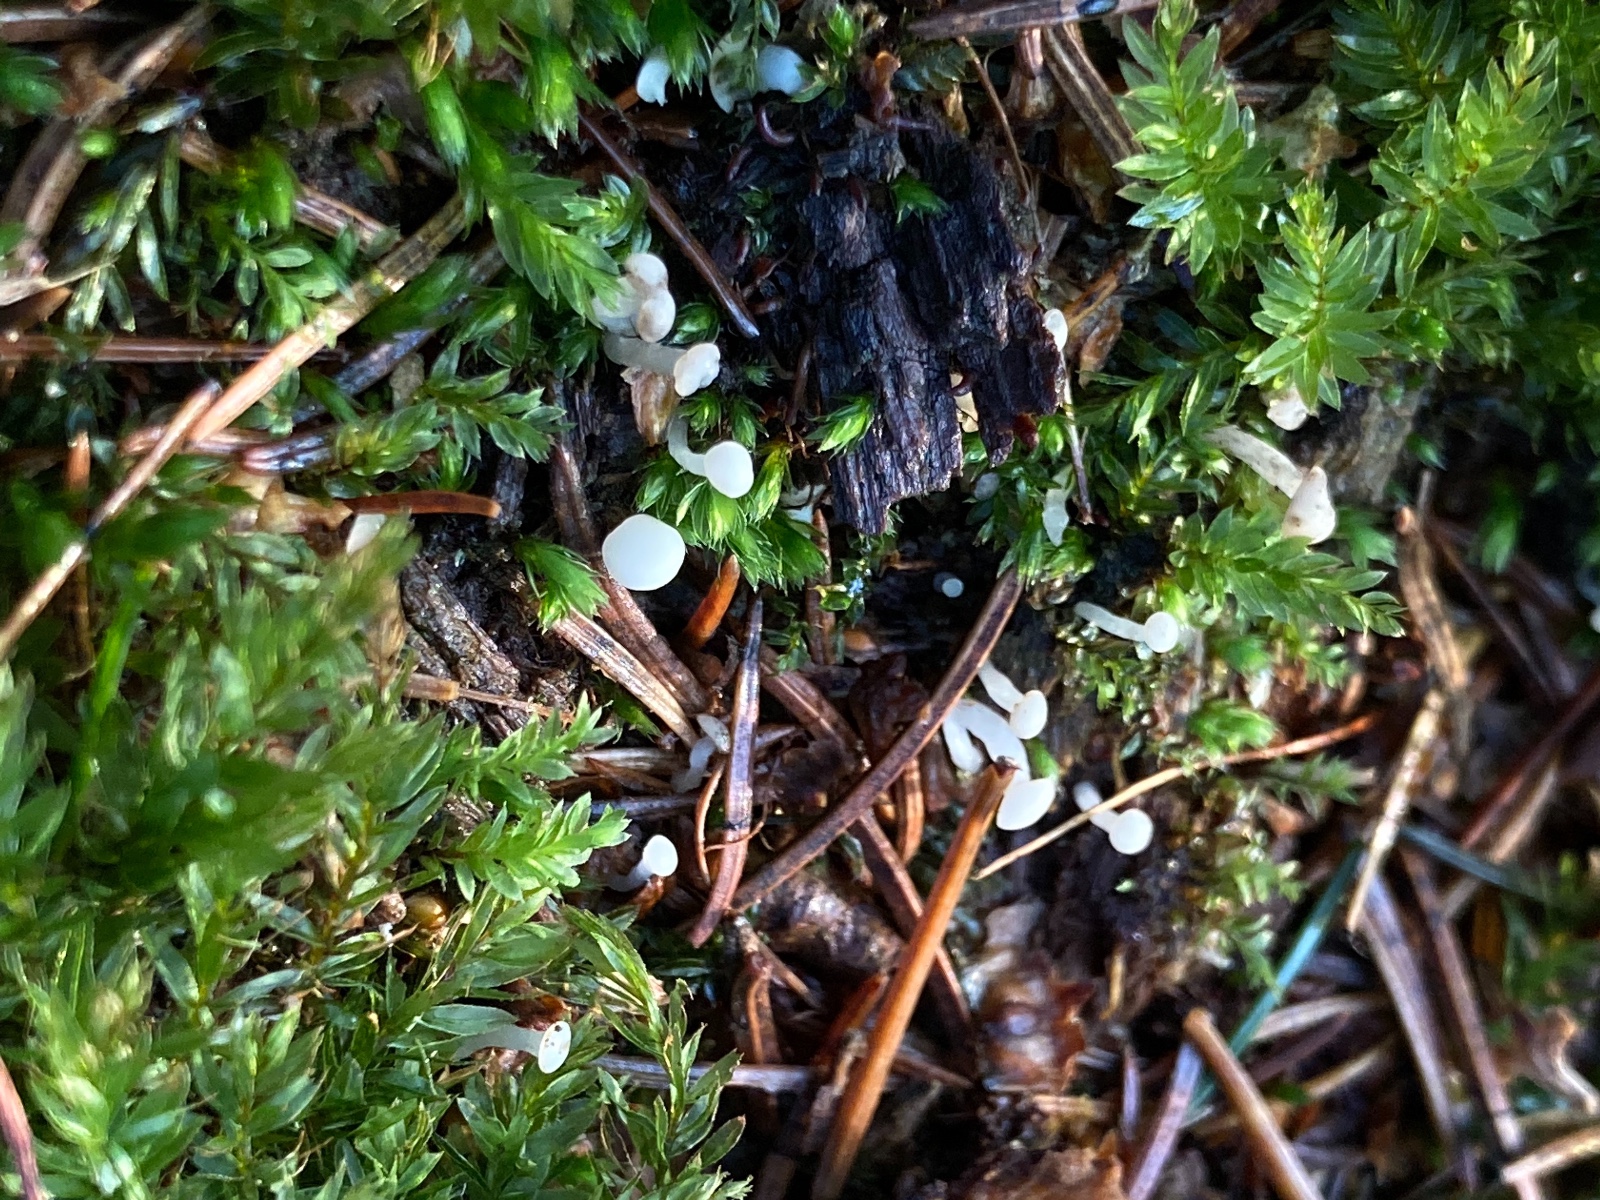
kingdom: Fungi
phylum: Ascomycota
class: Leotiomycetes
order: Helotiales
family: Tricladiaceae
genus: Cudoniella
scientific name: Cudoniella acicularis
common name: ege-dyndskive
